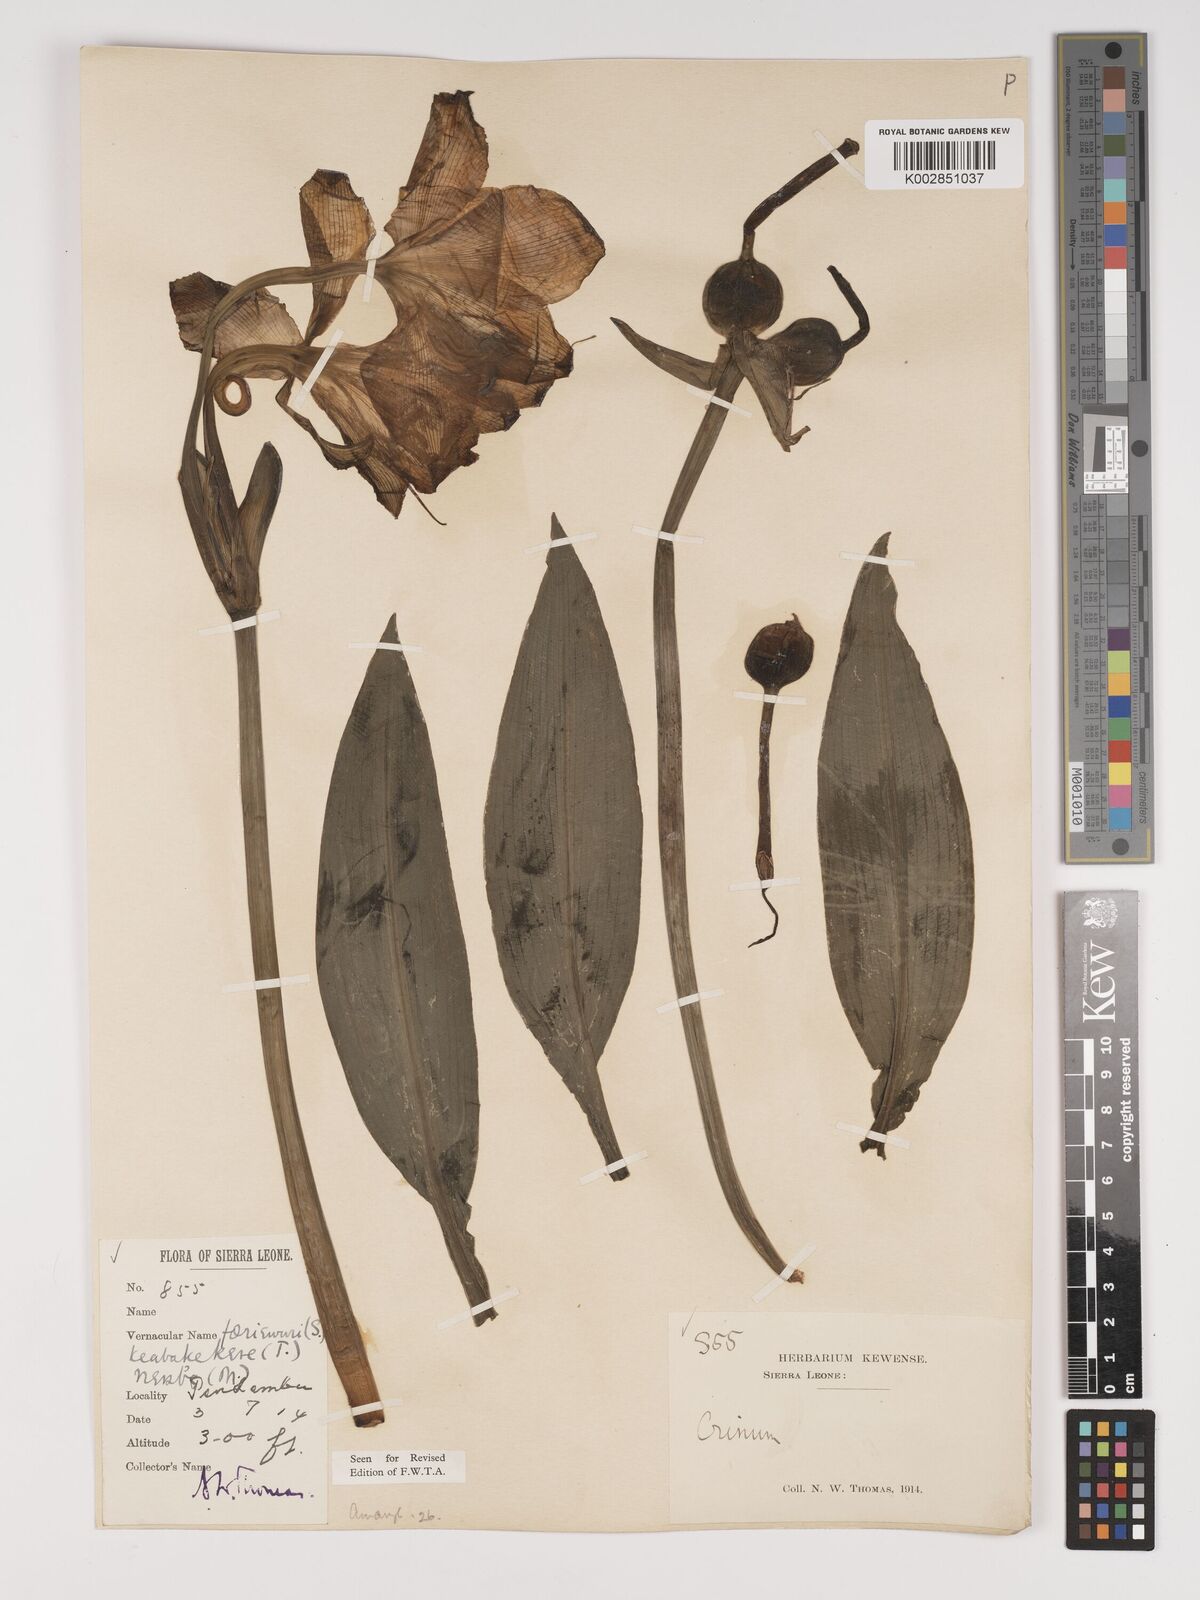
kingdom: Plantae
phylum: Tracheophyta
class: Liliopsida
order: Asparagales
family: Amaryllidaceae
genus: Crinum
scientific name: Crinum jagus
